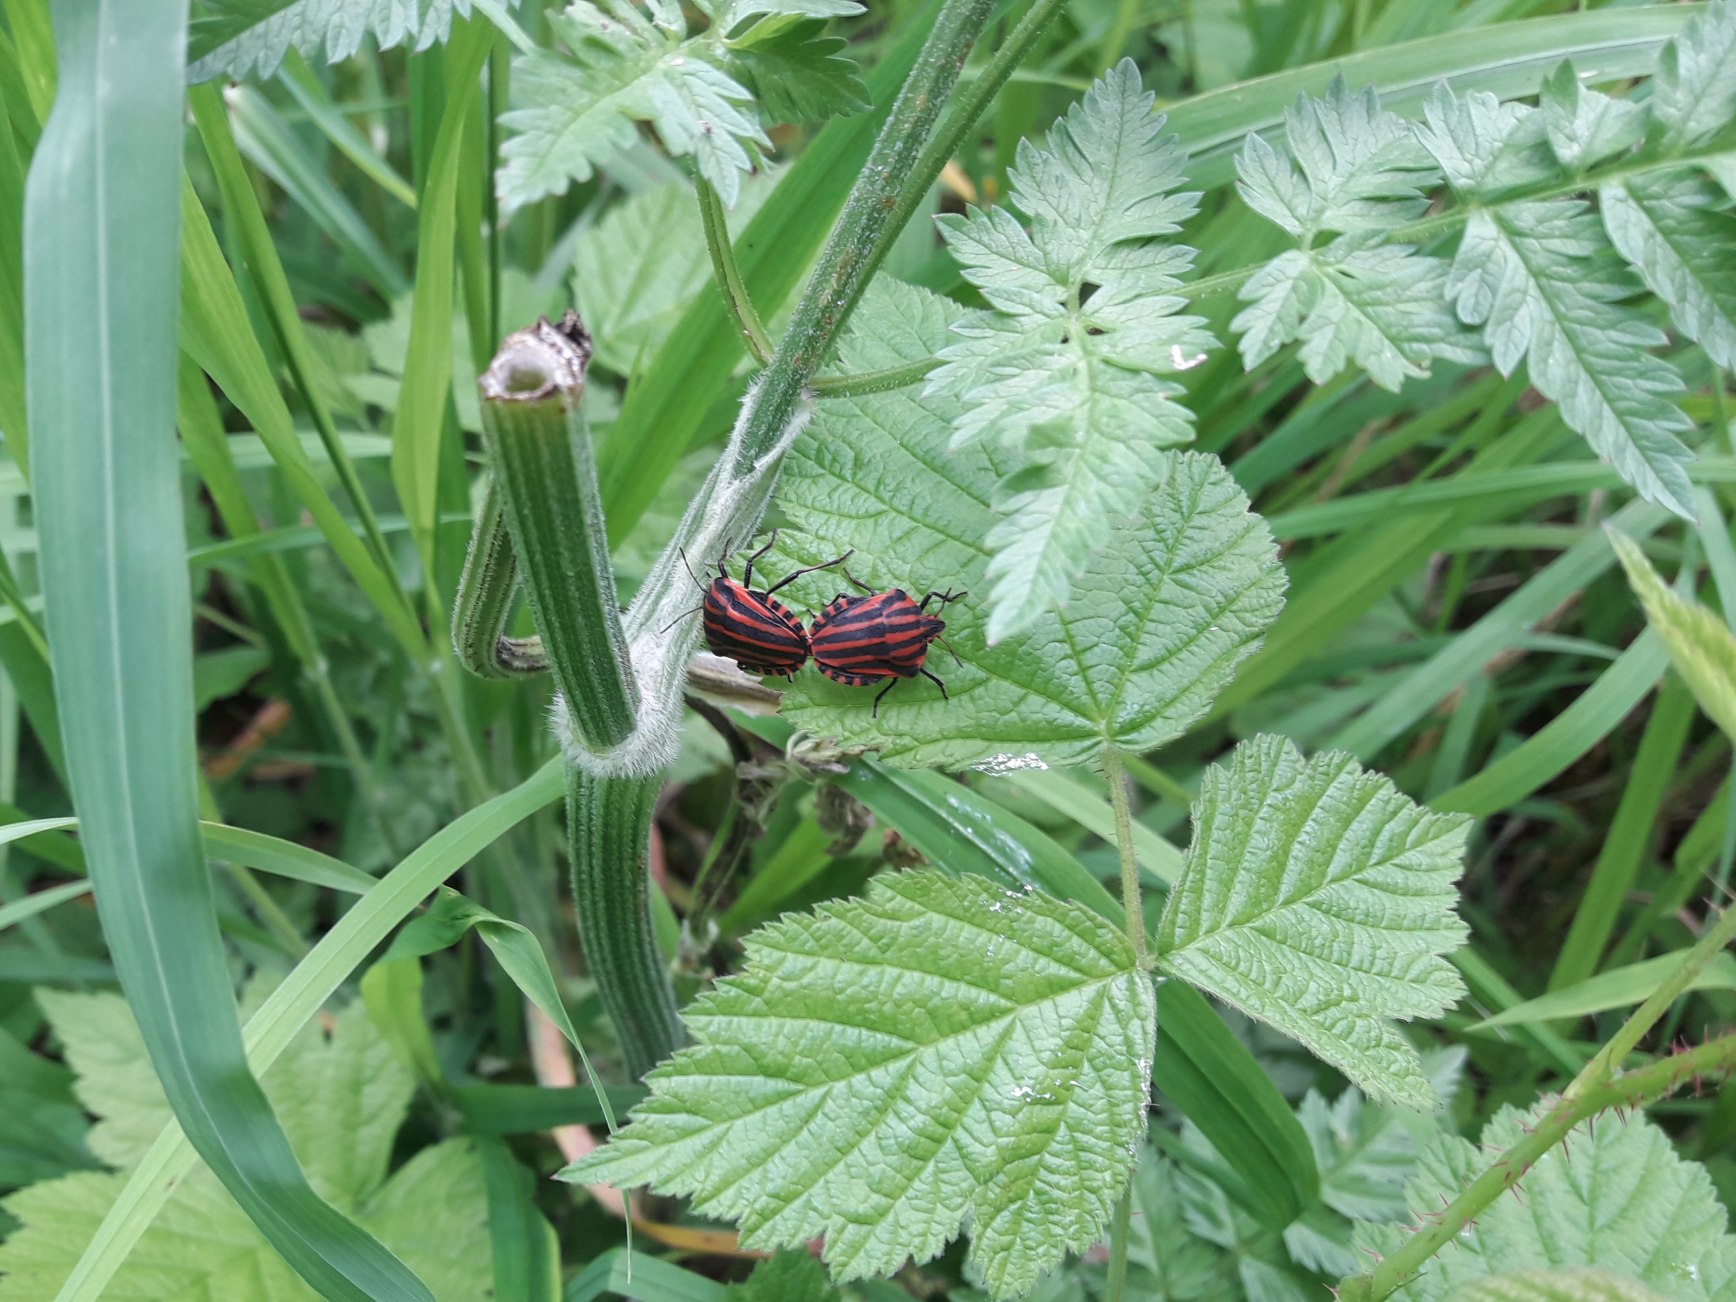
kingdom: Animalia
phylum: Arthropoda
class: Insecta
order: Hemiptera
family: Pentatomidae
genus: Graphosoma
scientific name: Graphosoma italicum
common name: Stribetæge
